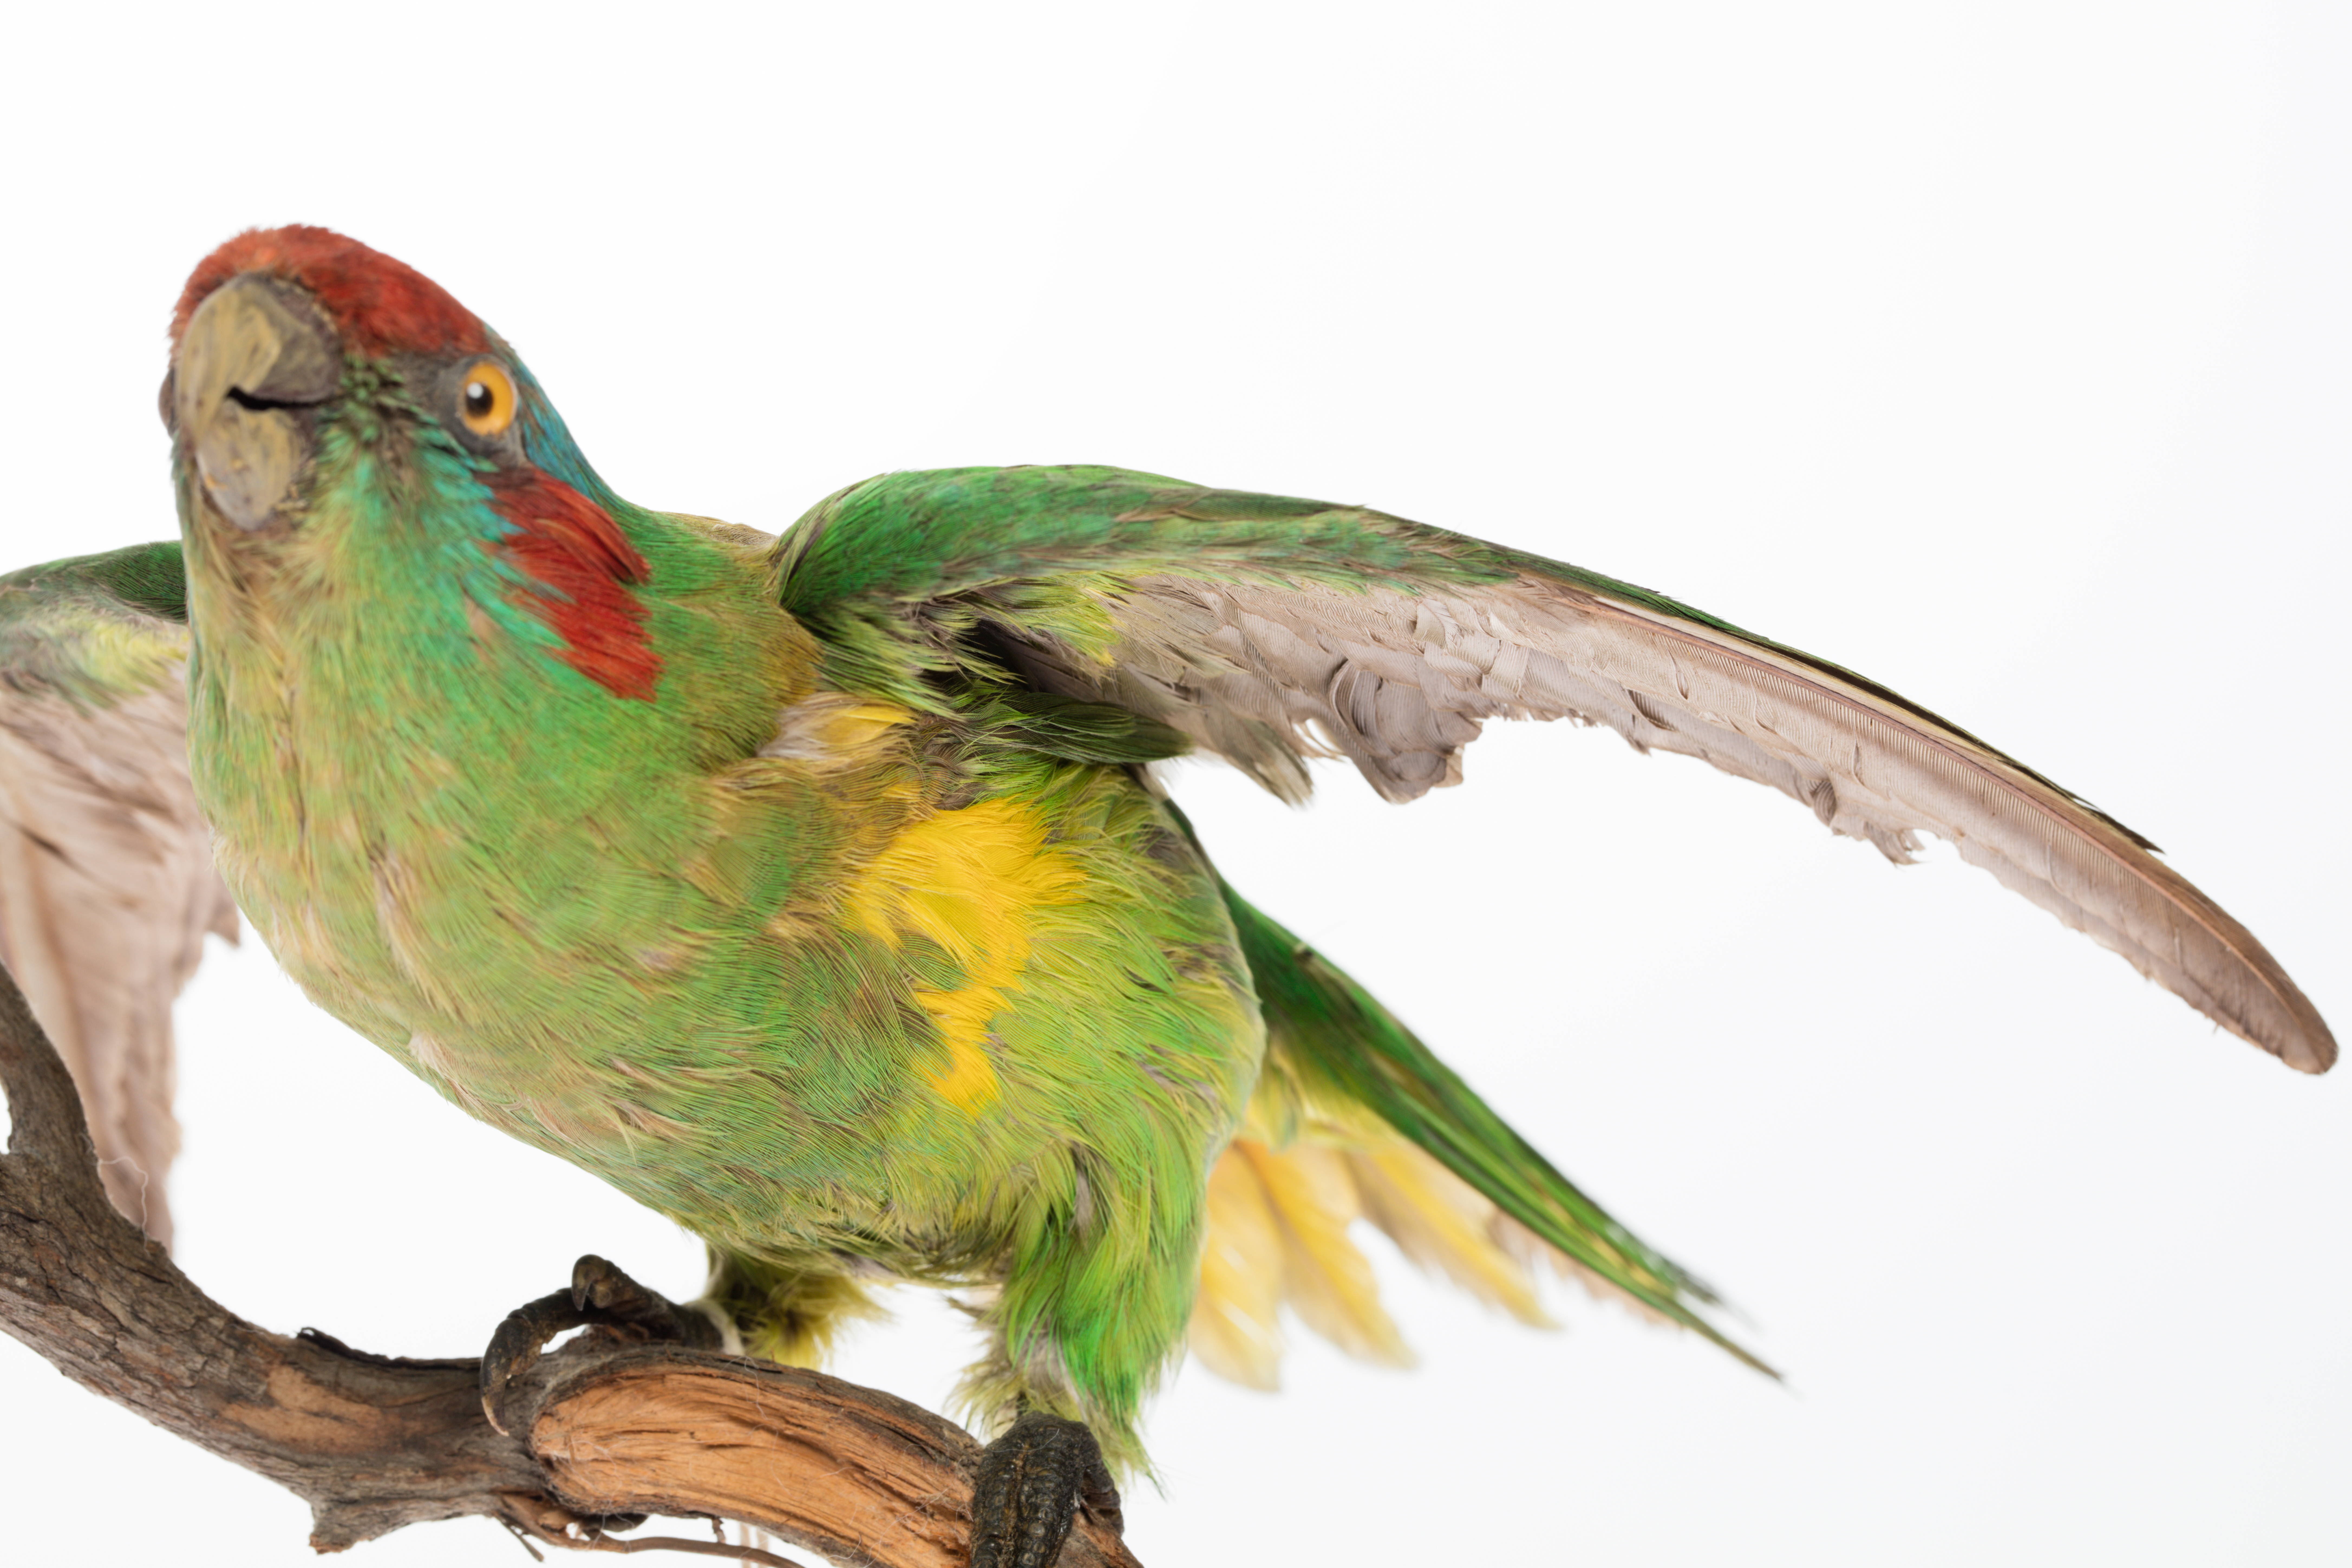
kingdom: Animalia
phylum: Chordata
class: Aves
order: Psittaciformes
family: Psittacidae
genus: Glossopsitta
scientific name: Glossopsitta concinna
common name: Musk lorikeet
